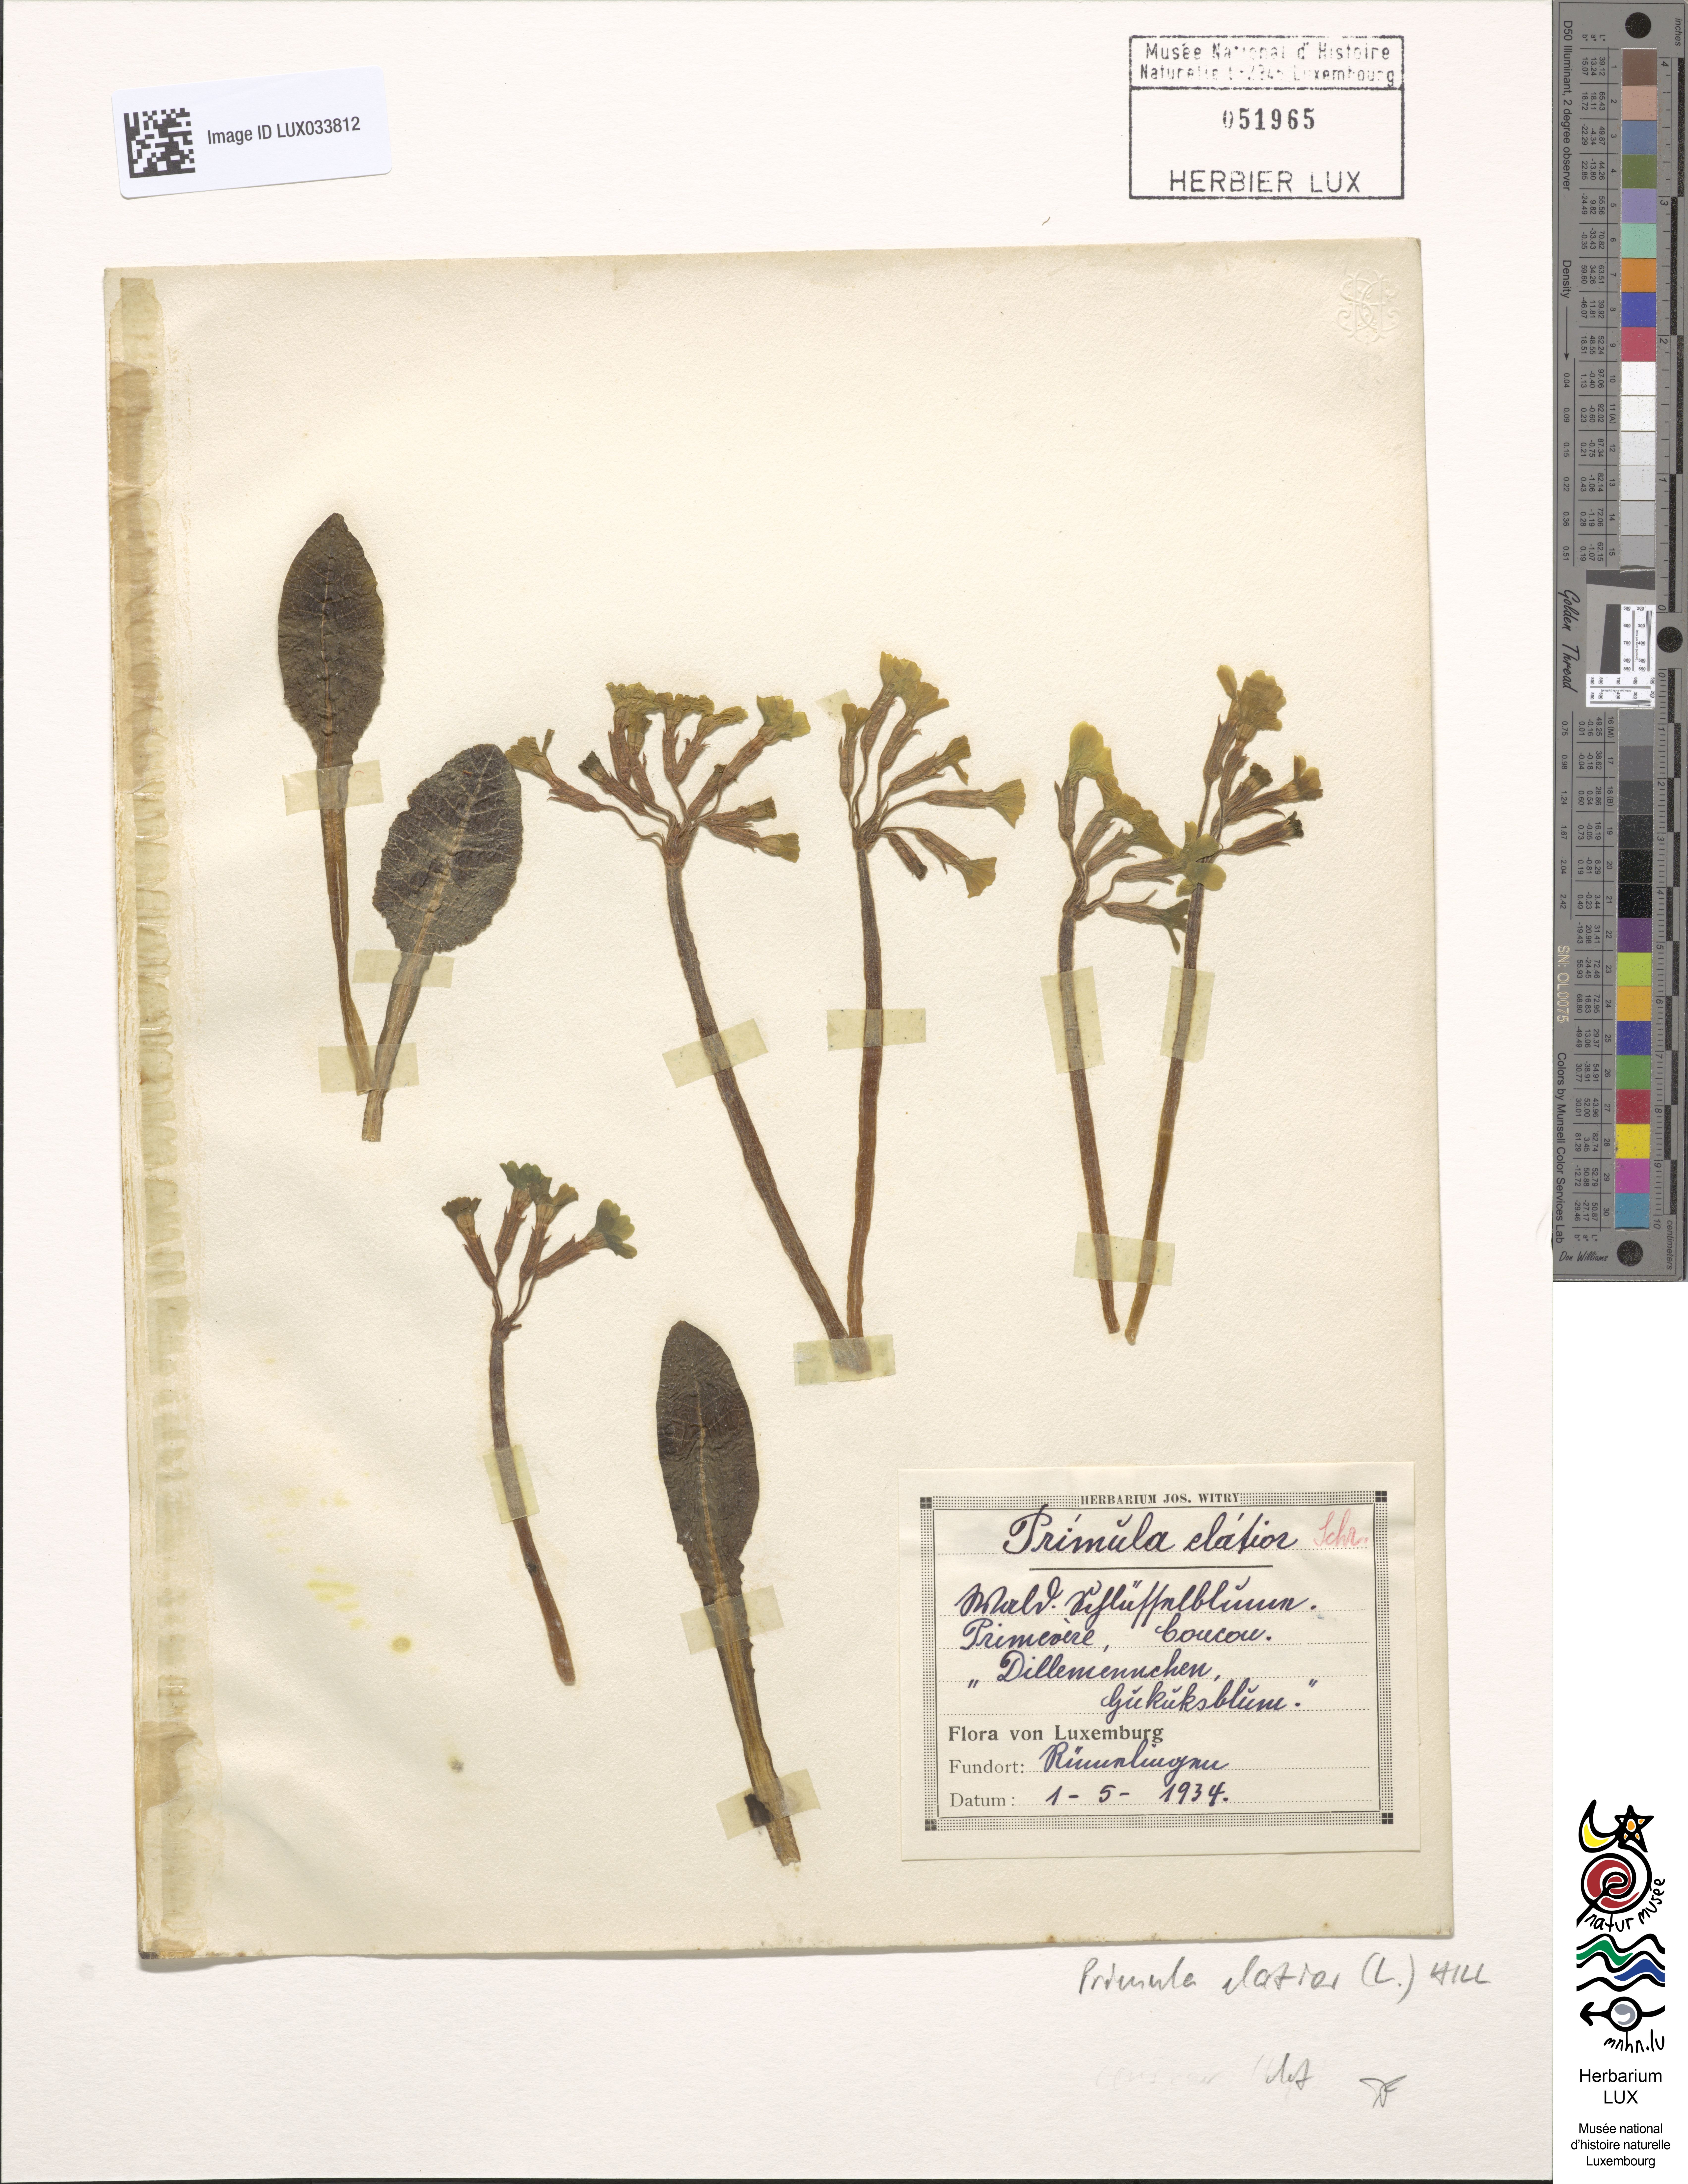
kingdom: Plantae
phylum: Tracheophyta
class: Magnoliopsida
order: Ericales
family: Primulaceae
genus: Primula
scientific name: Primula elatior
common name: Oxlip
